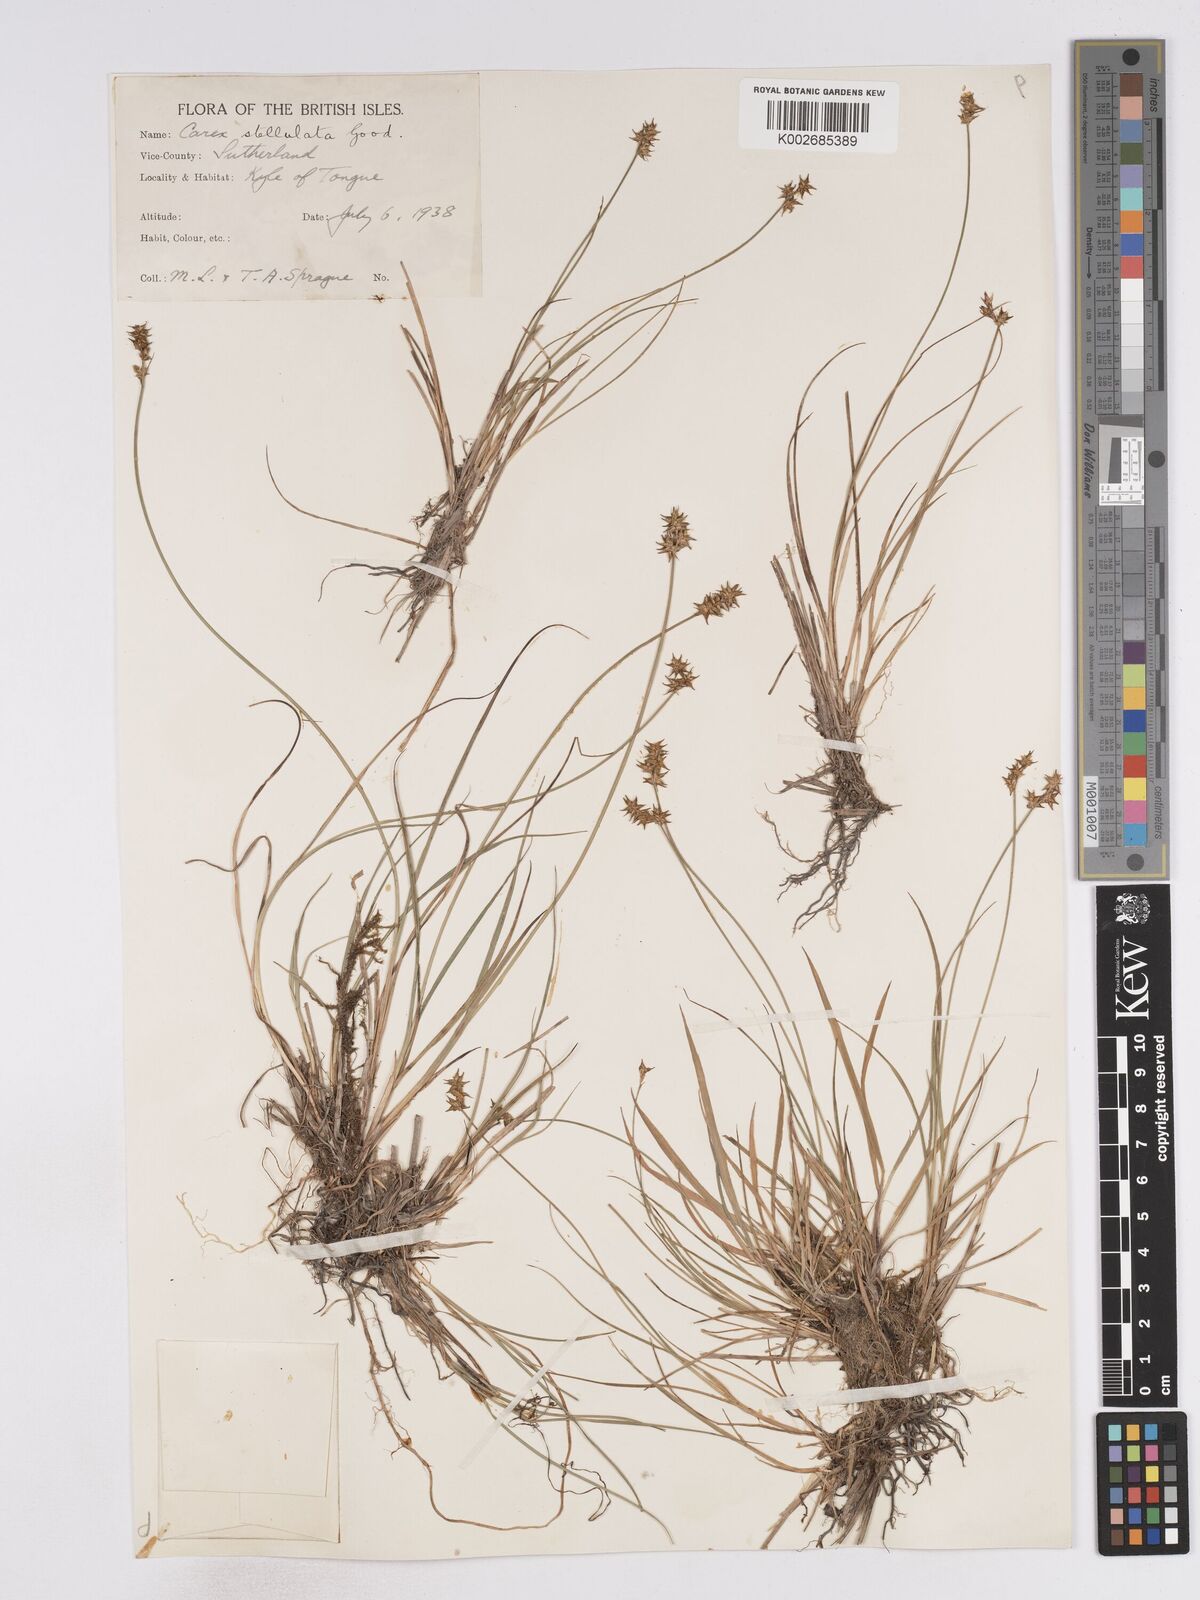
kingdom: Plantae
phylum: Tracheophyta
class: Liliopsida
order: Poales
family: Cyperaceae
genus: Carex
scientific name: Carex
